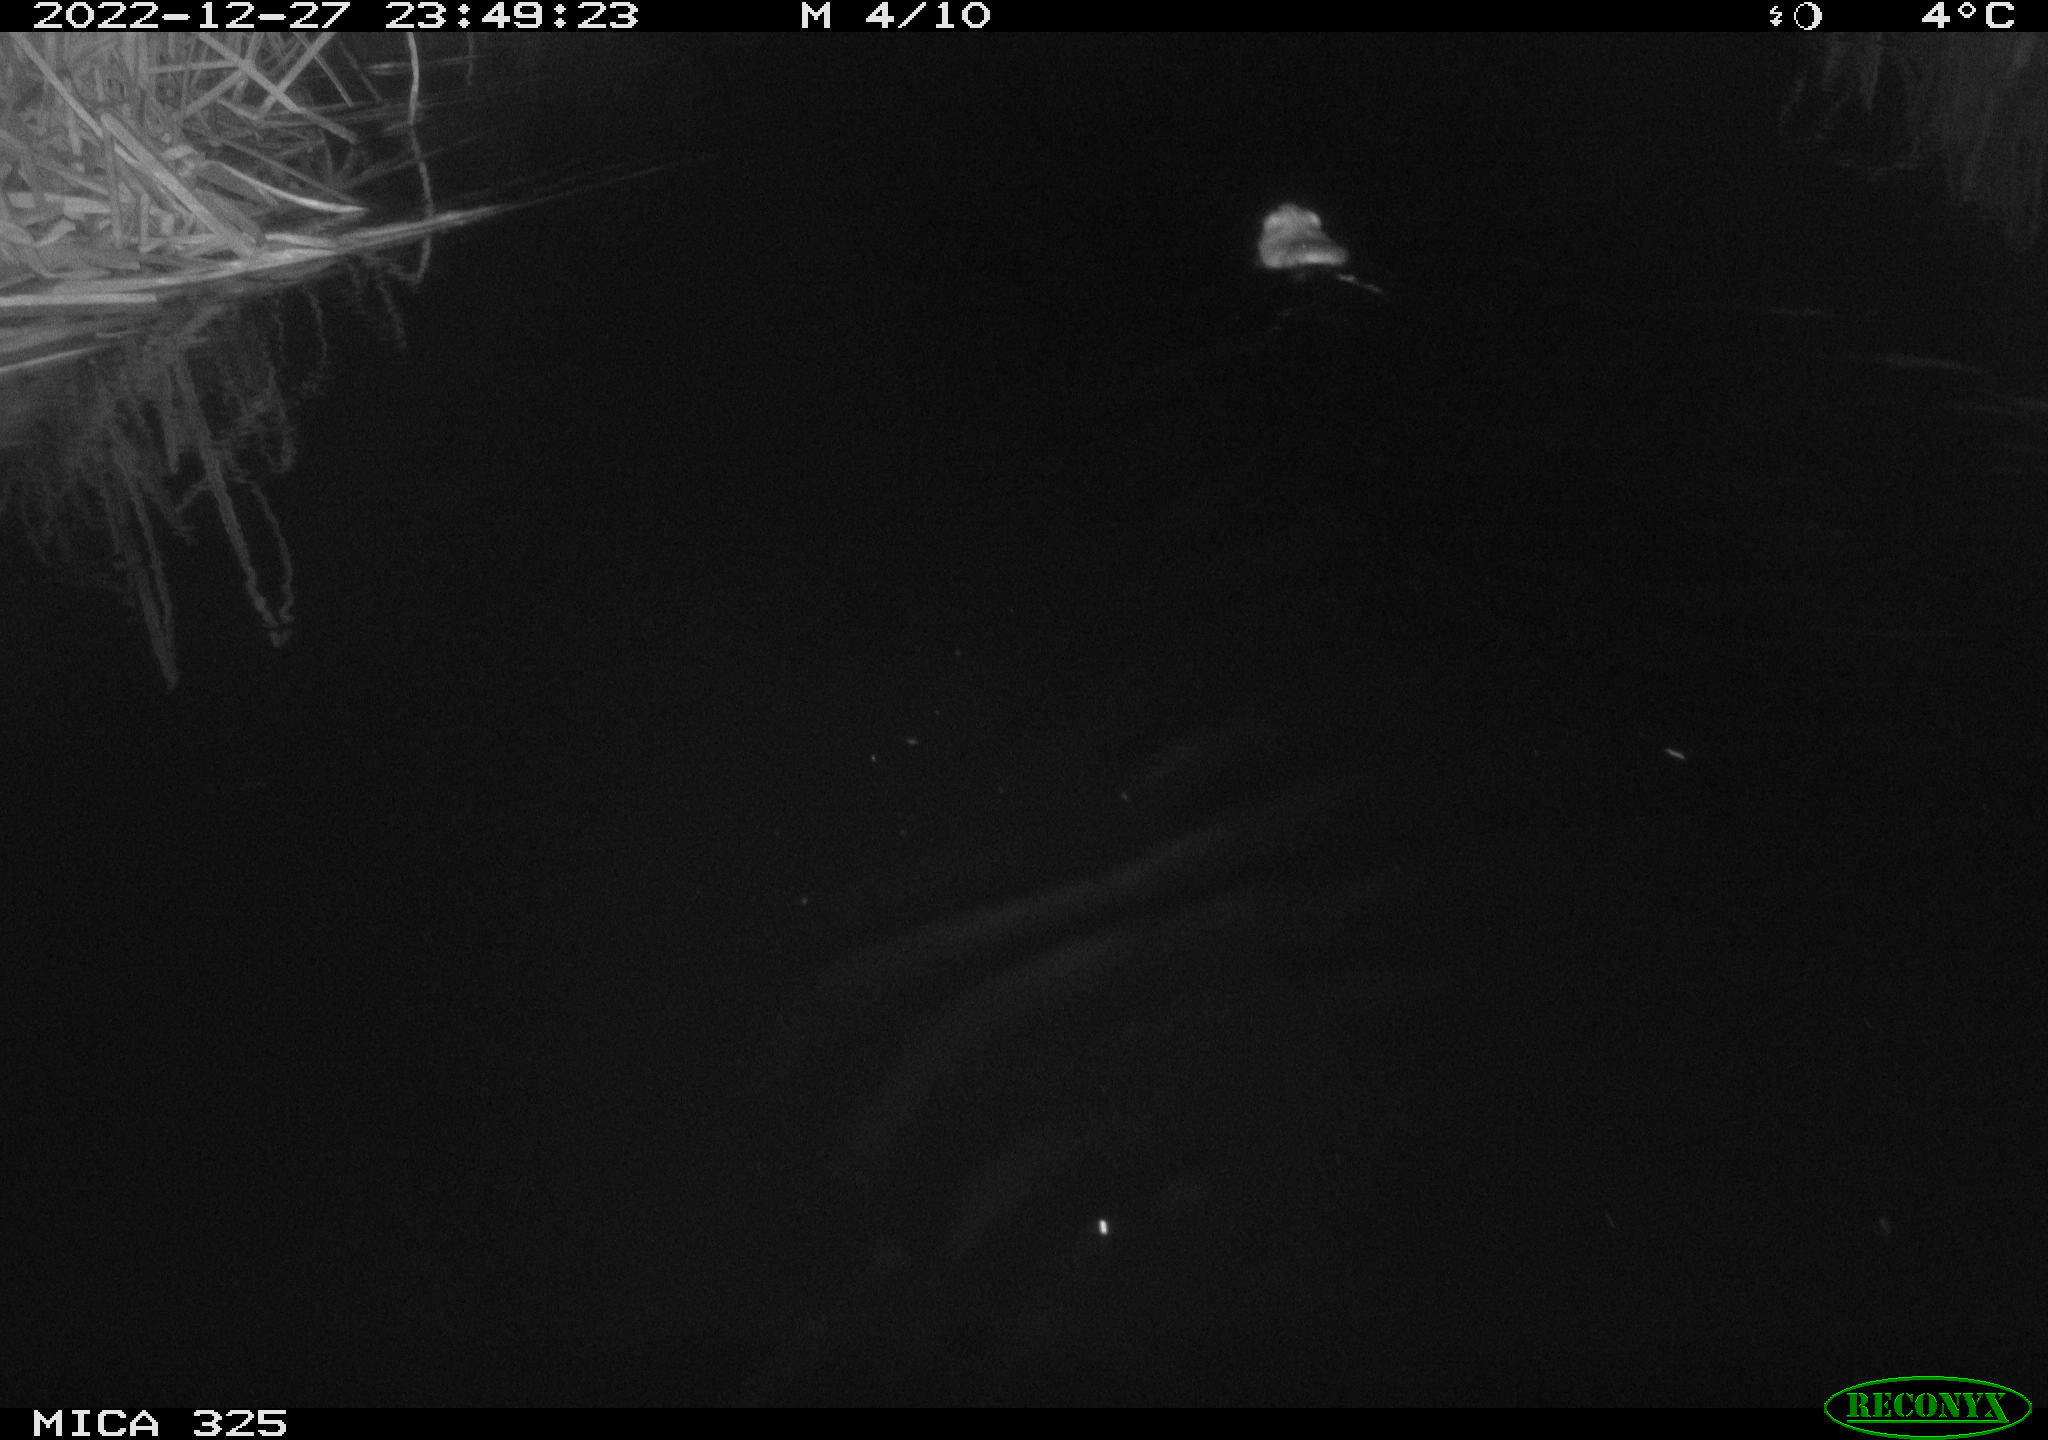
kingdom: Animalia
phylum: Chordata
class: Mammalia
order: Rodentia
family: Cricetidae
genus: Ondatra
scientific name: Ondatra zibethicus
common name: Muskrat
